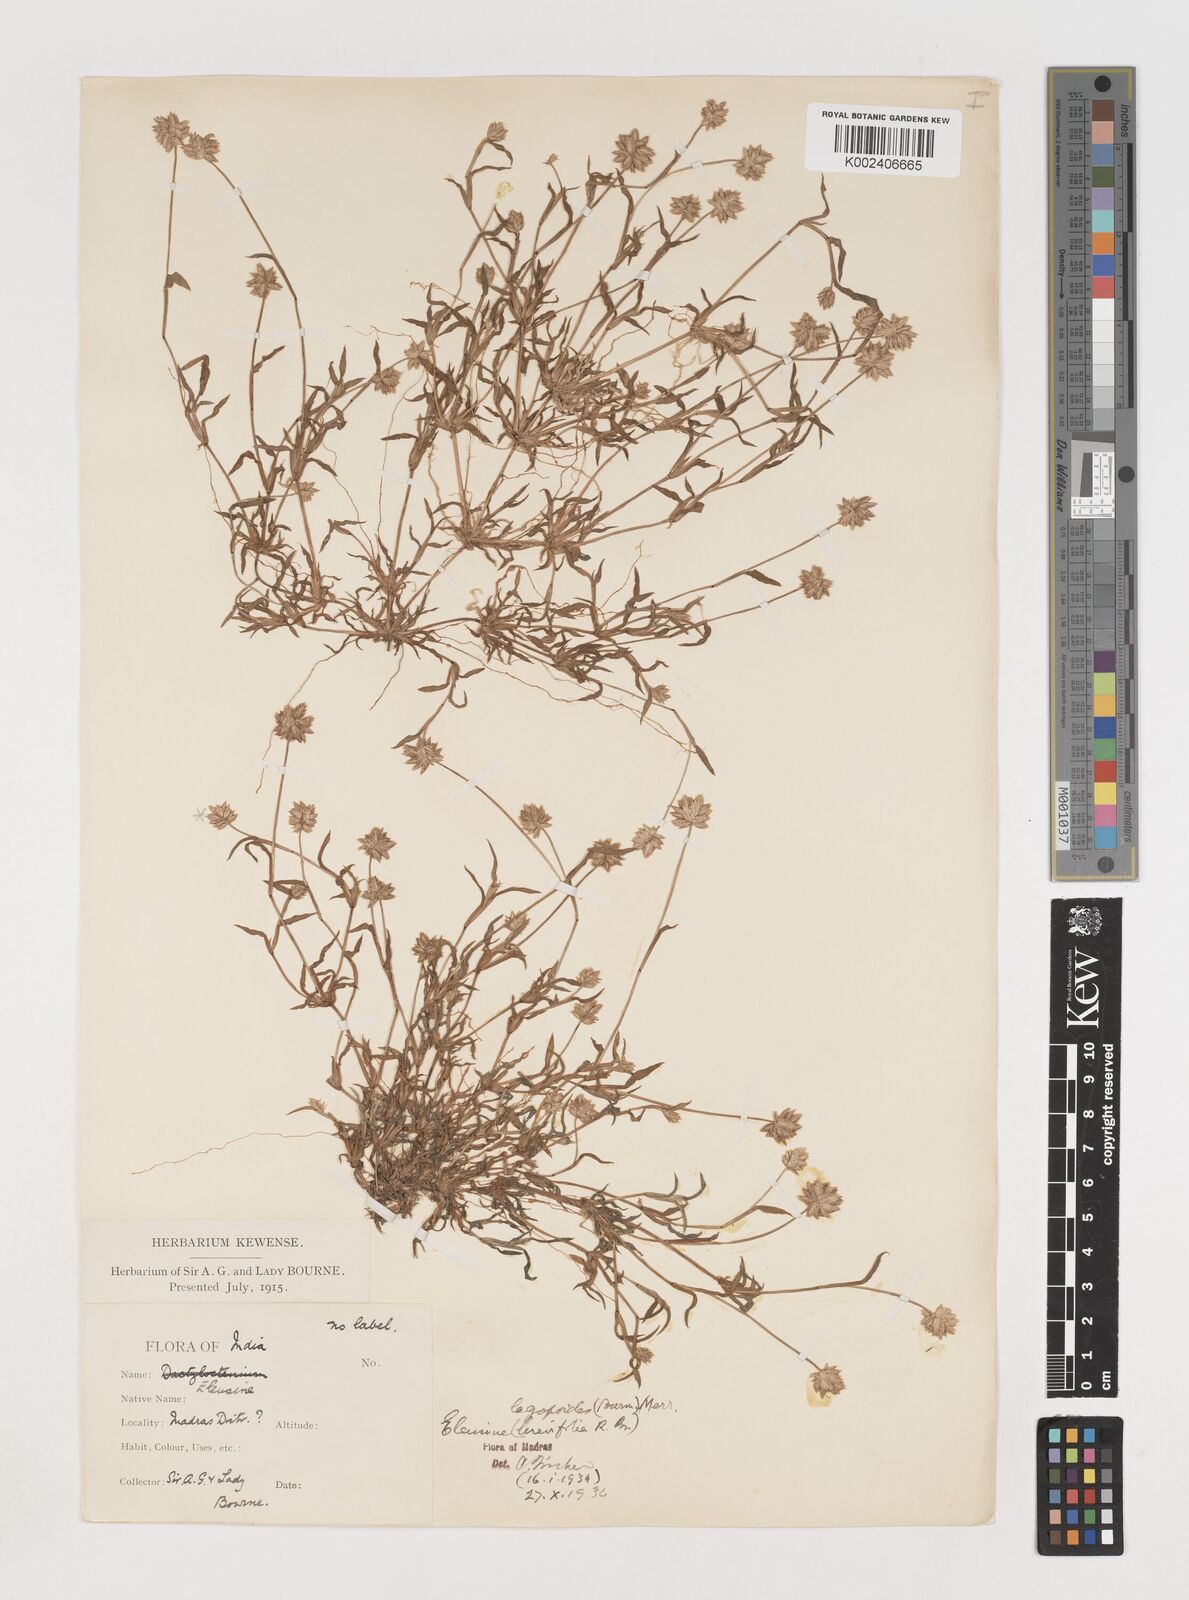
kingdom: Plantae
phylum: Tracheophyta
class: Liliopsida
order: Poales
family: Poaceae
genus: Coelachyrum
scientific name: Coelachyrum lagopoides
